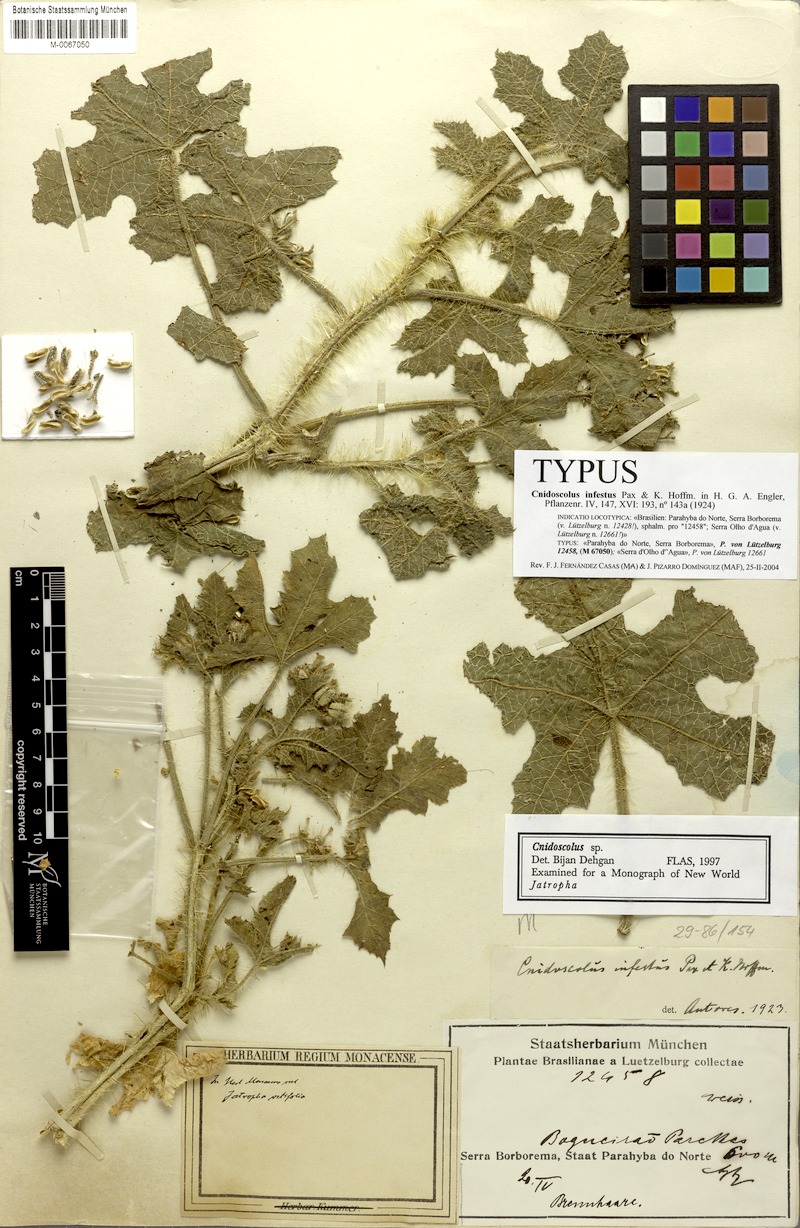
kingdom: Plantae
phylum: Tracheophyta
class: Magnoliopsida
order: Malpighiales
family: Euphorbiaceae
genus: Cnidoscolus
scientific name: Cnidoscolus infestus
